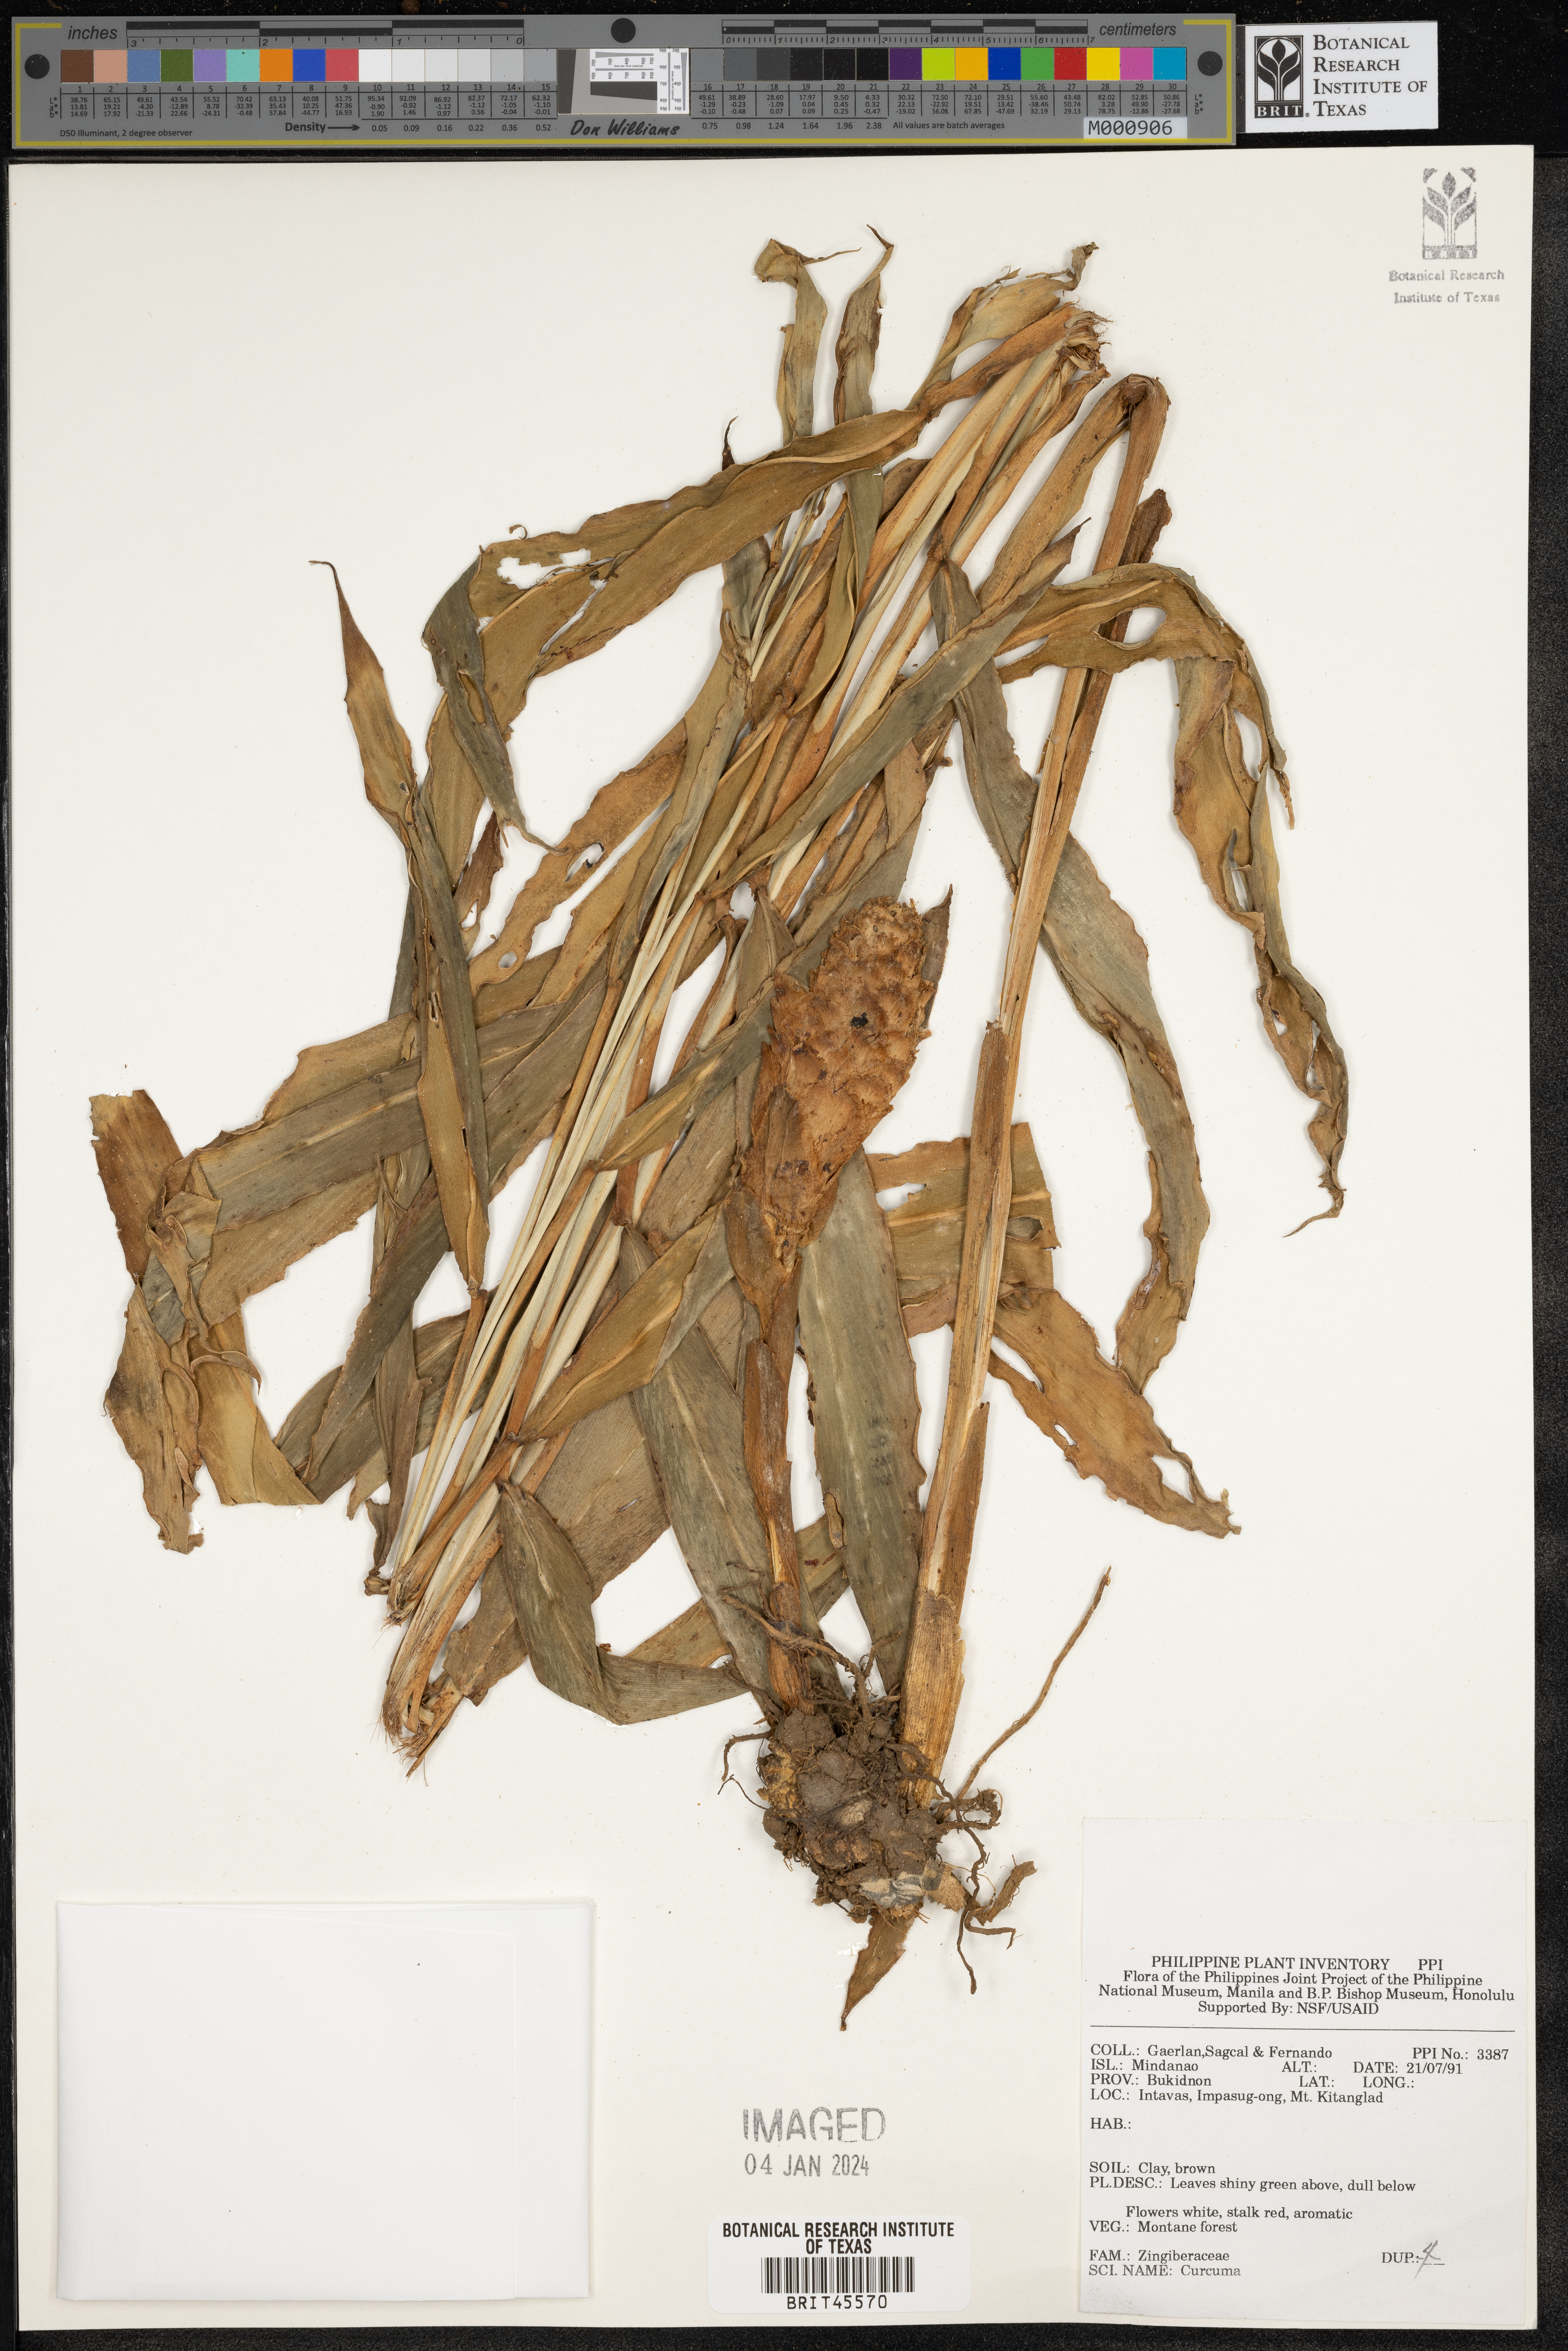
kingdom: Plantae
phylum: Tracheophyta
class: Liliopsida
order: Zingiberales
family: Zingiberaceae
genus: Curcuma
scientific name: Curcuma
